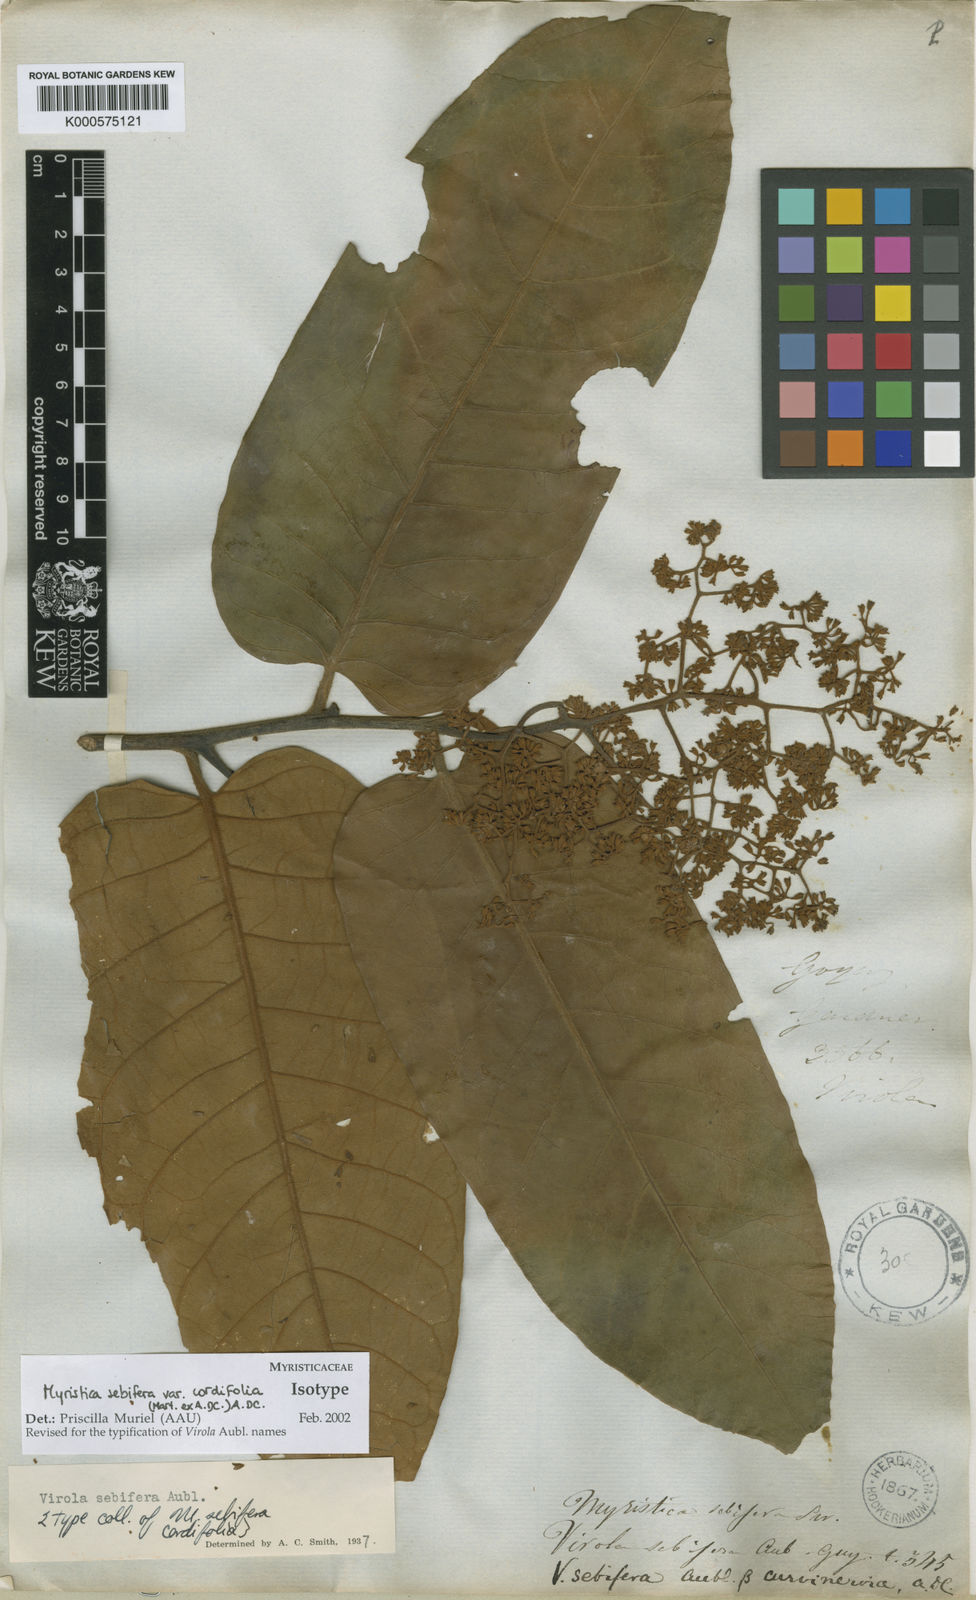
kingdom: Plantae
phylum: Tracheophyta
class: Magnoliopsida
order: Magnoliales
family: Myristicaceae
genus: Virola
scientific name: Virola sebifera
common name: Red ucuuba
